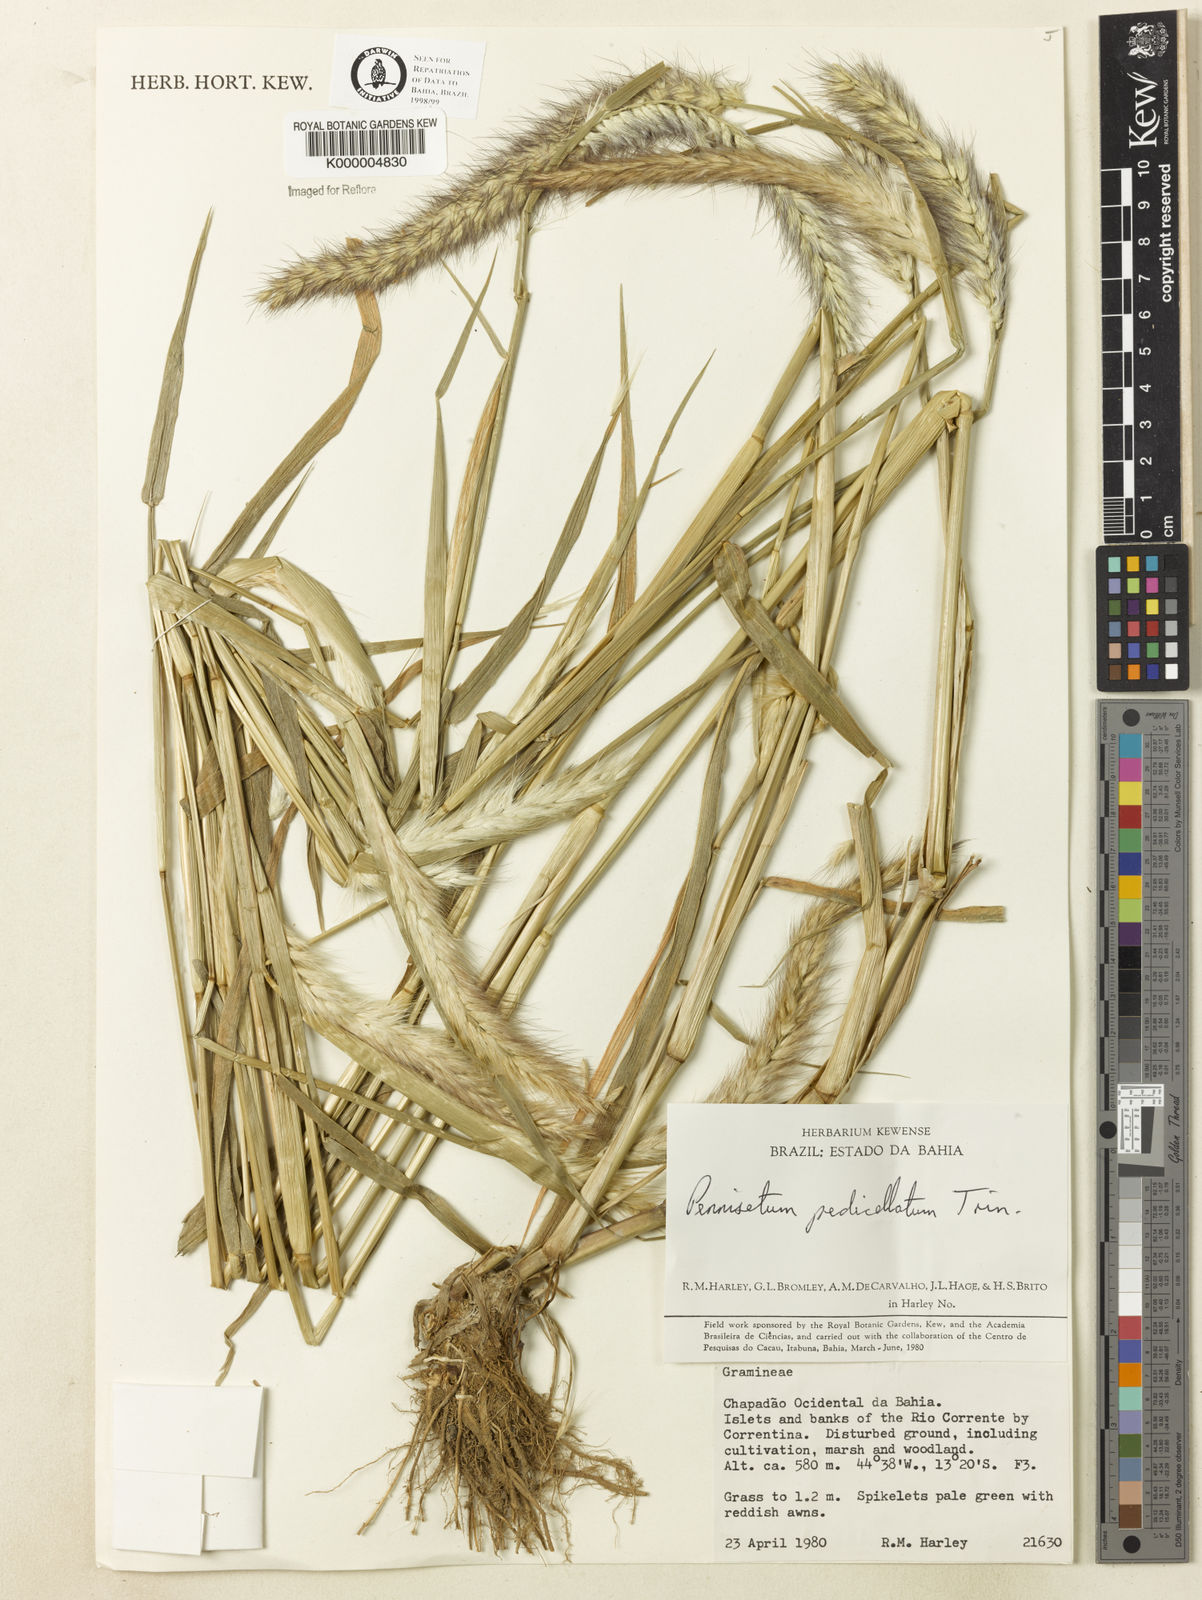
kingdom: Plantae
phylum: Tracheophyta
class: Liliopsida
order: Poales
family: Poaceae
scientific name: Poaceae
